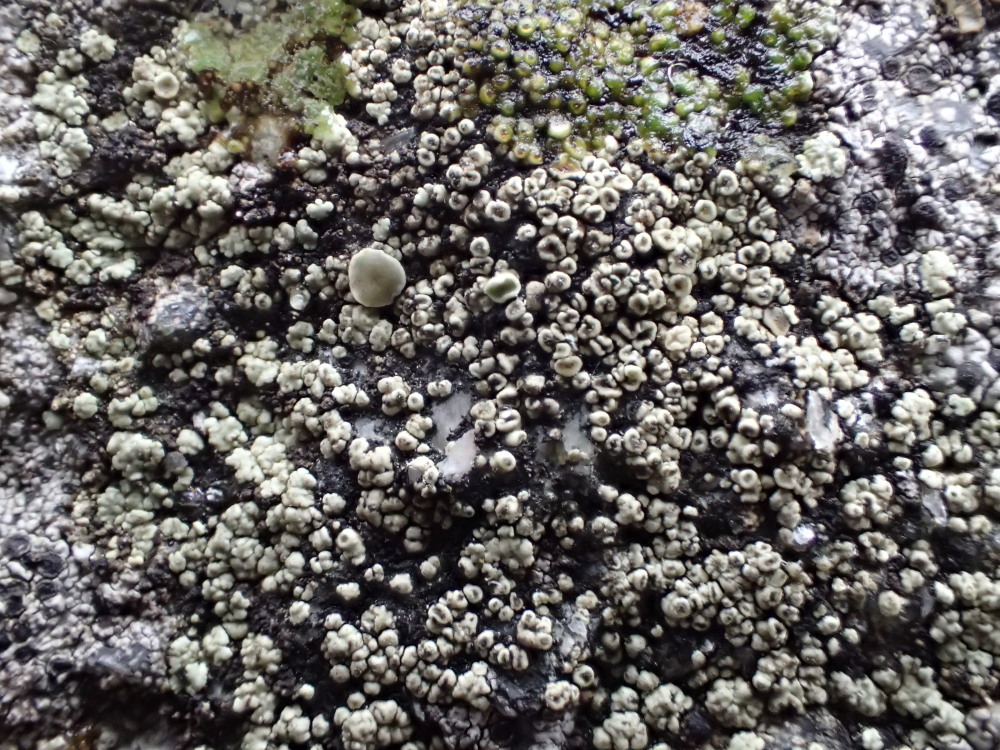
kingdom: Fungi
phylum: Ascomycota
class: Lecanoromycetes
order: Lecanorales
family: Lecanoraceae
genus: Lecanora
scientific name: Lecanora polytropa
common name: bleggrøn kantskivelav
